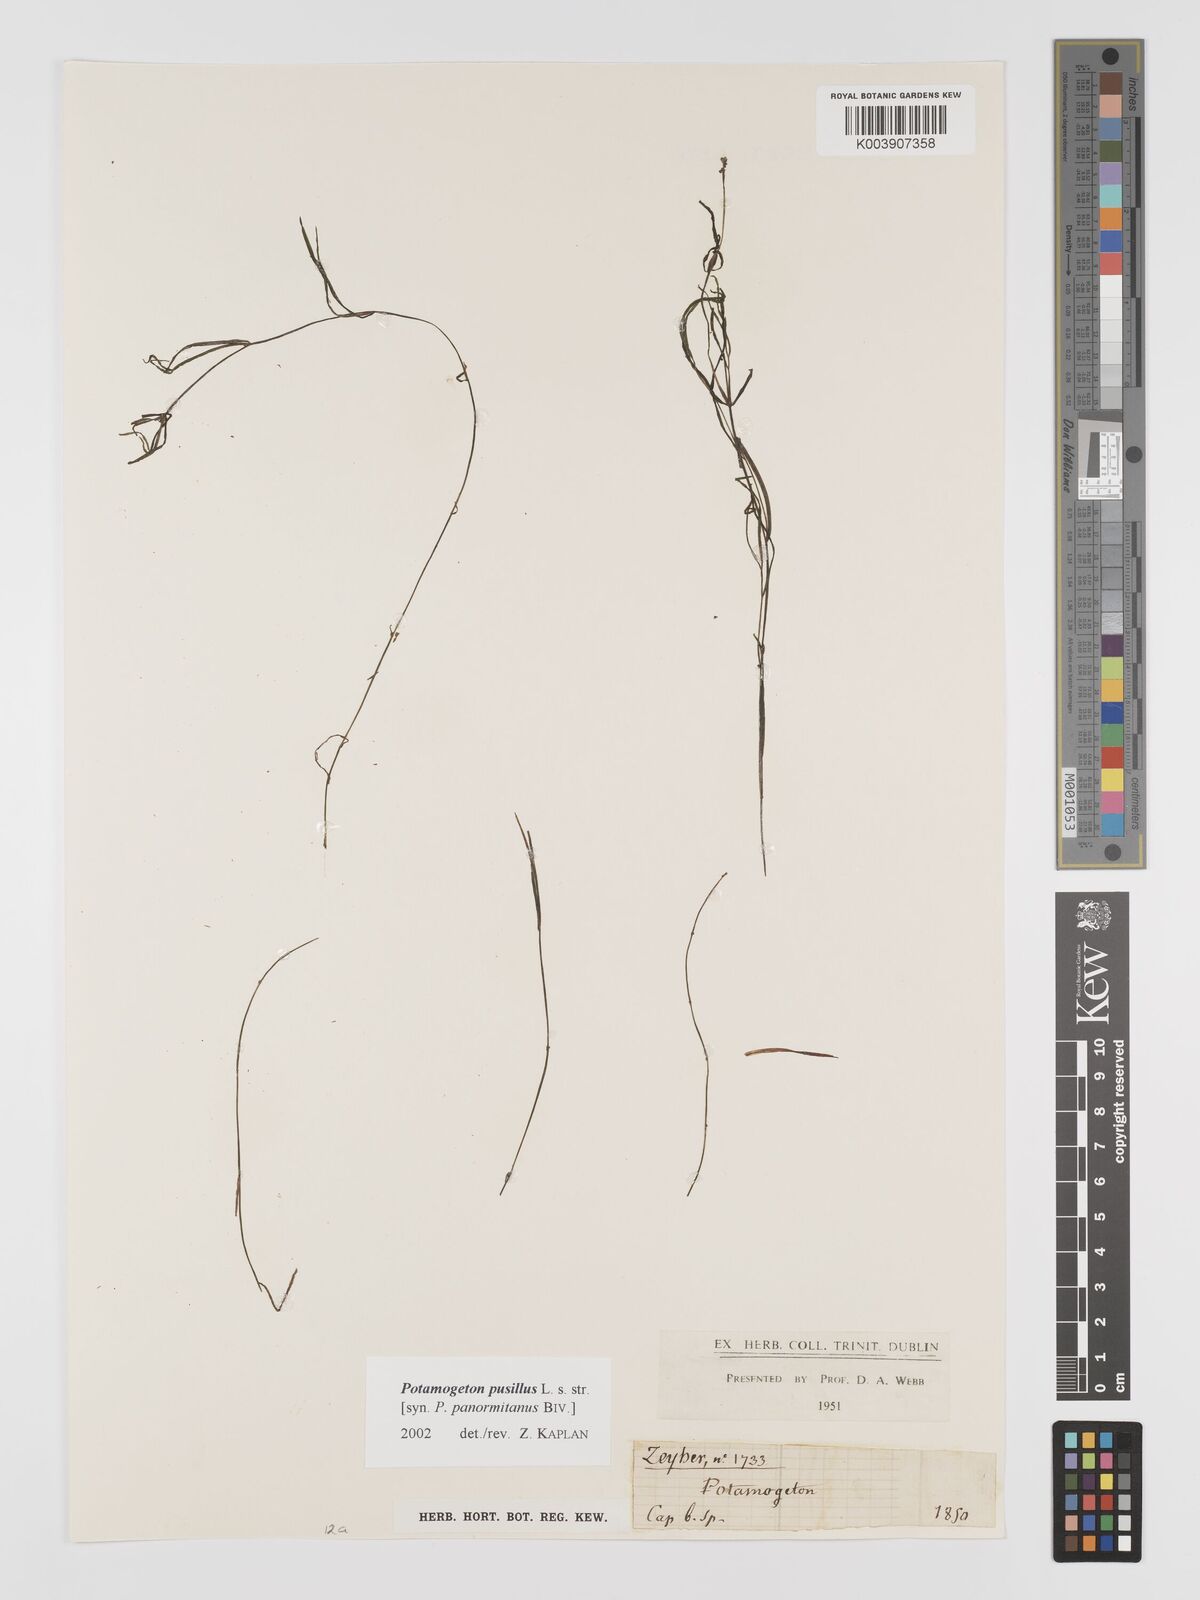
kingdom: Plantae
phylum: Tracheophyta
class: Liliopsida
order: Alismatales
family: Potamogetonaceae
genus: Potamogeton
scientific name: Potamogeton pusillus
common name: Lesser pondweed
